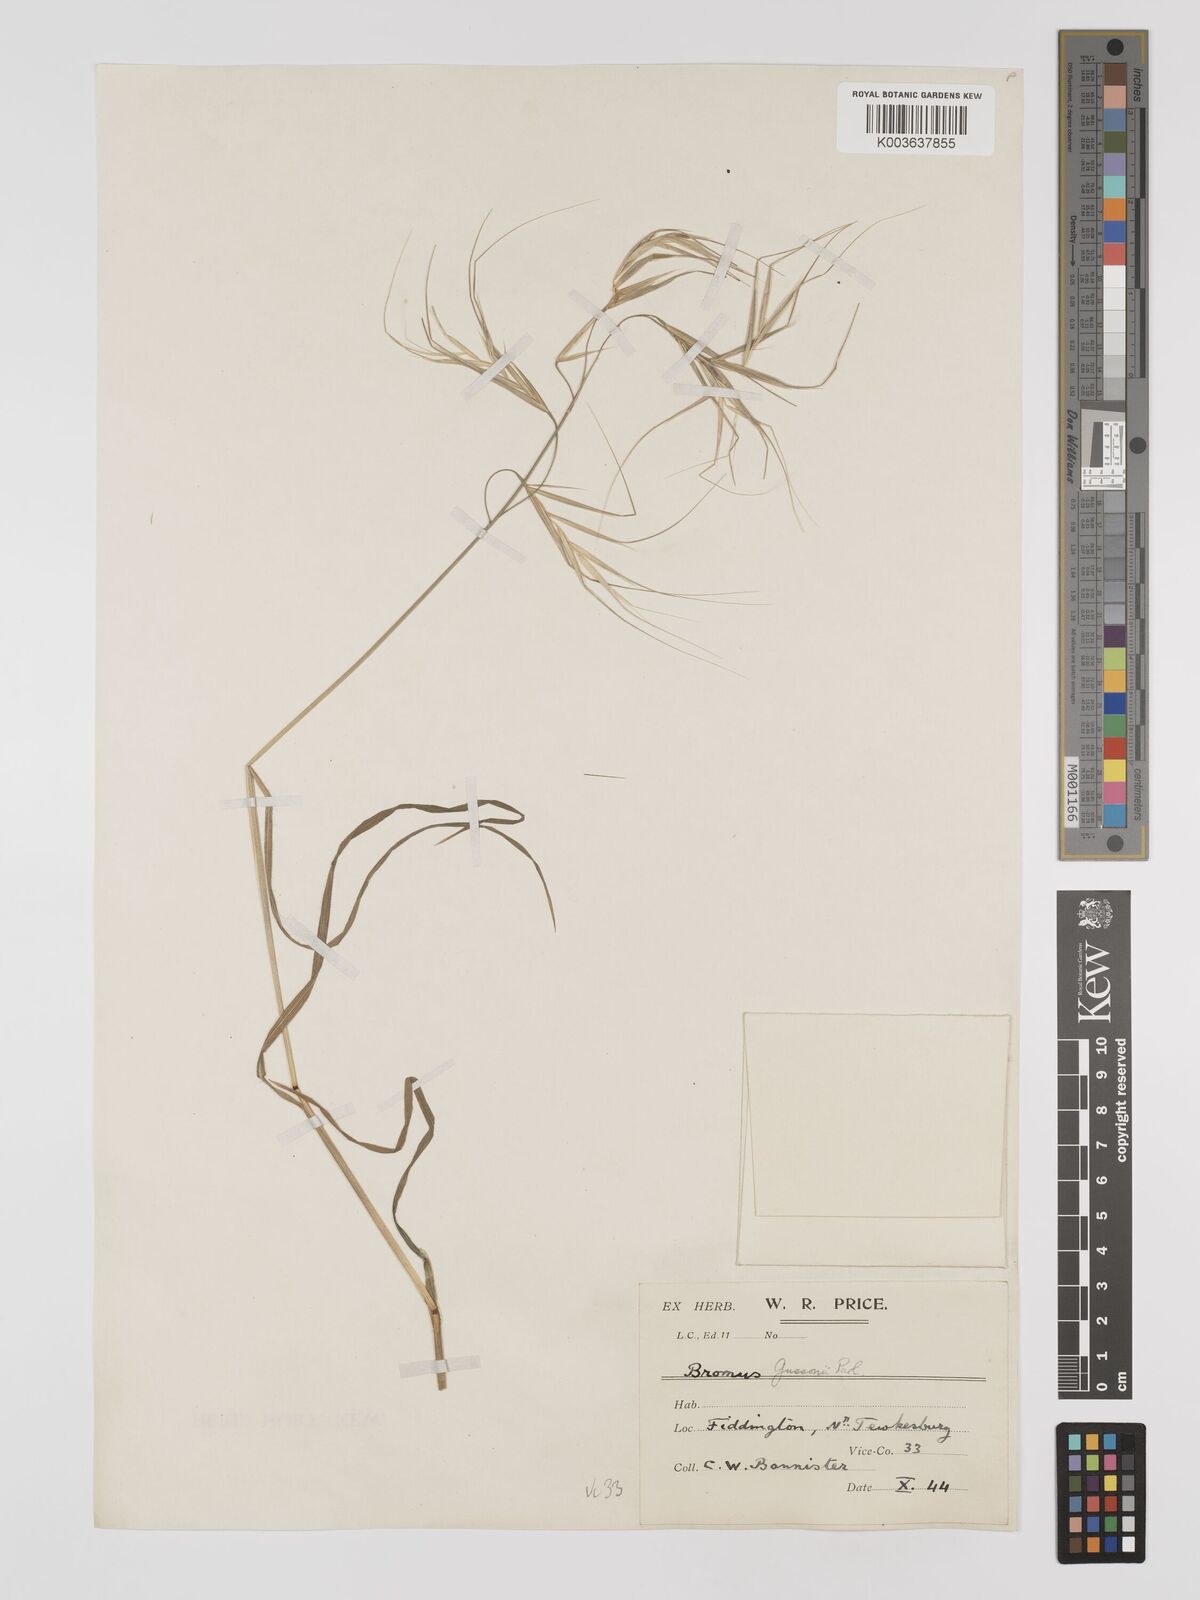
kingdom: Plantae
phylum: Tracheophyta
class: Liliopsida
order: Poales
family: Poaceae
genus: Bromus
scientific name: Bromus
